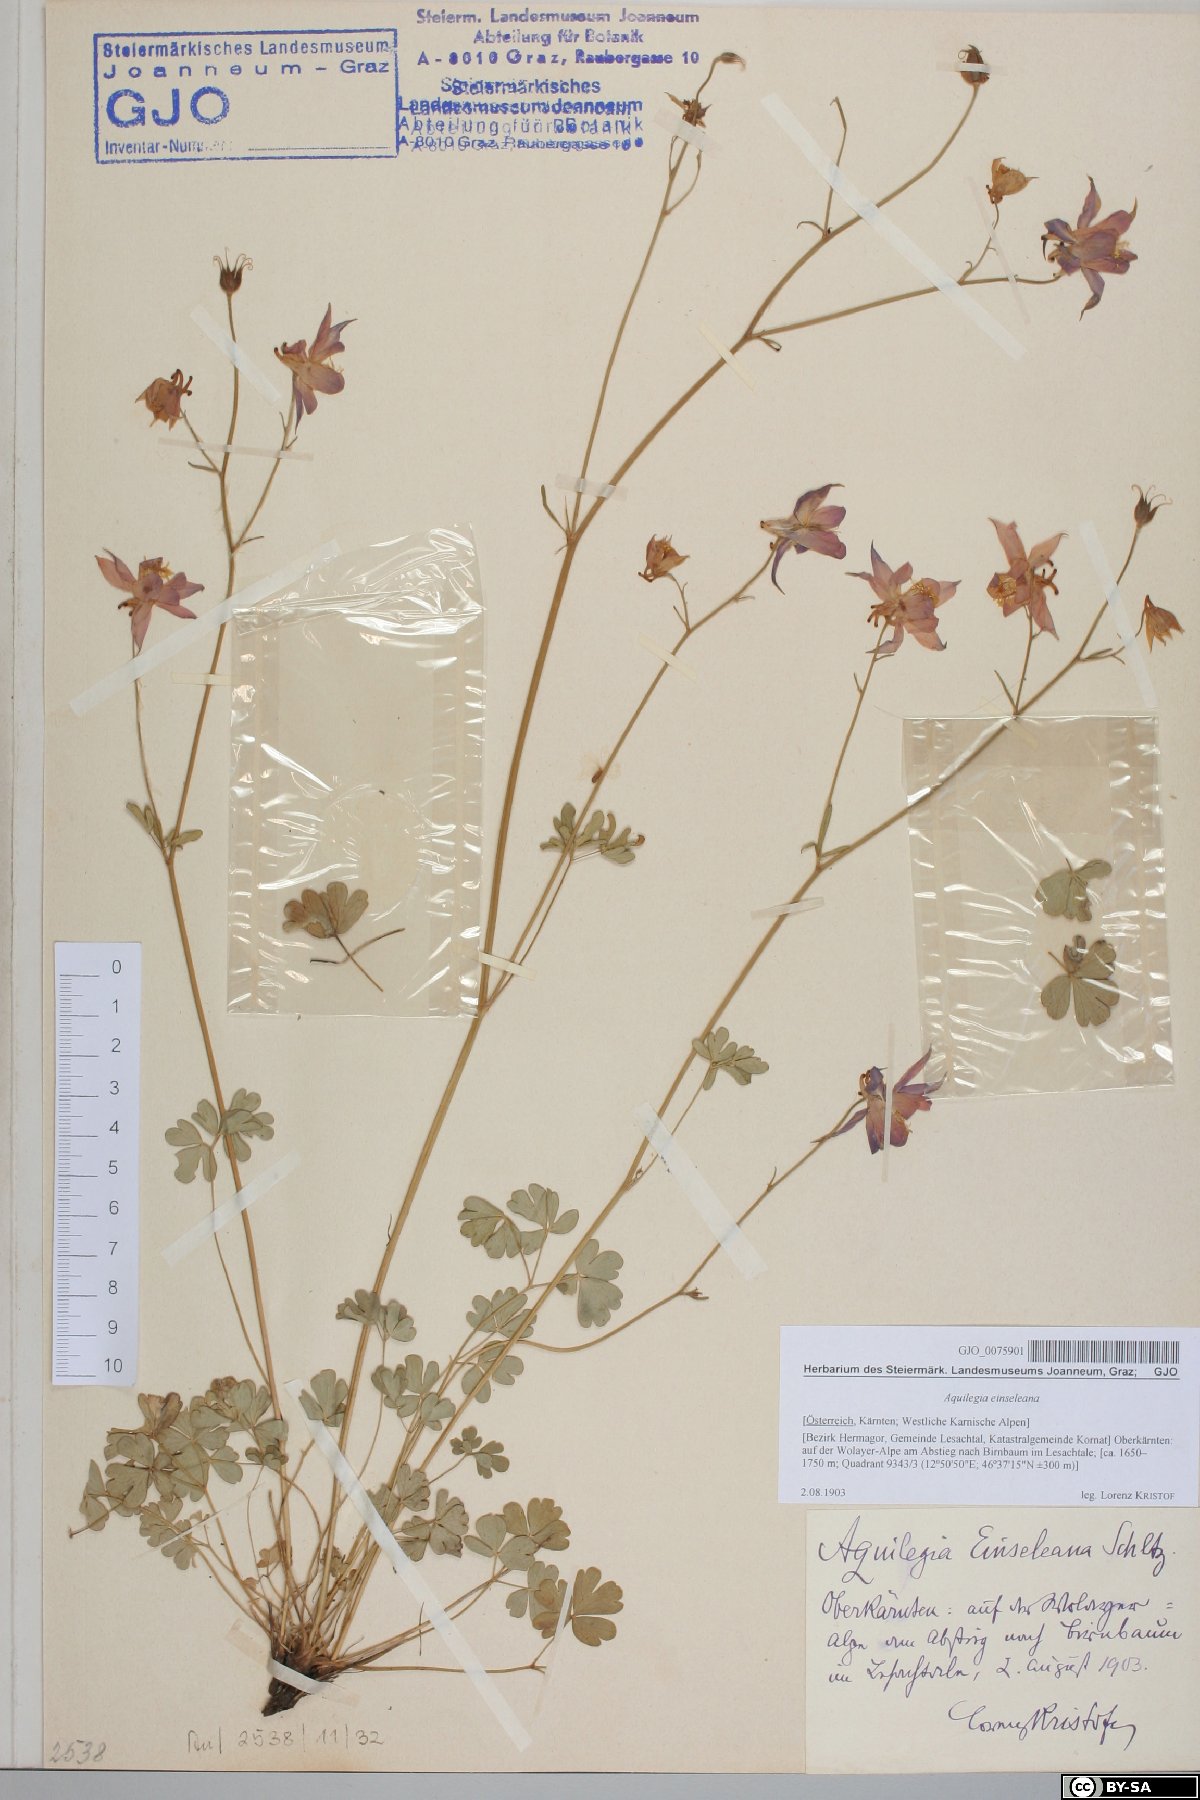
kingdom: Plantae
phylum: Tracheophyta
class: Magnoliopsida
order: Ranunculales
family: Ranunculaceae
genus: Aquilegia
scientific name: Aquilegia einseleana
